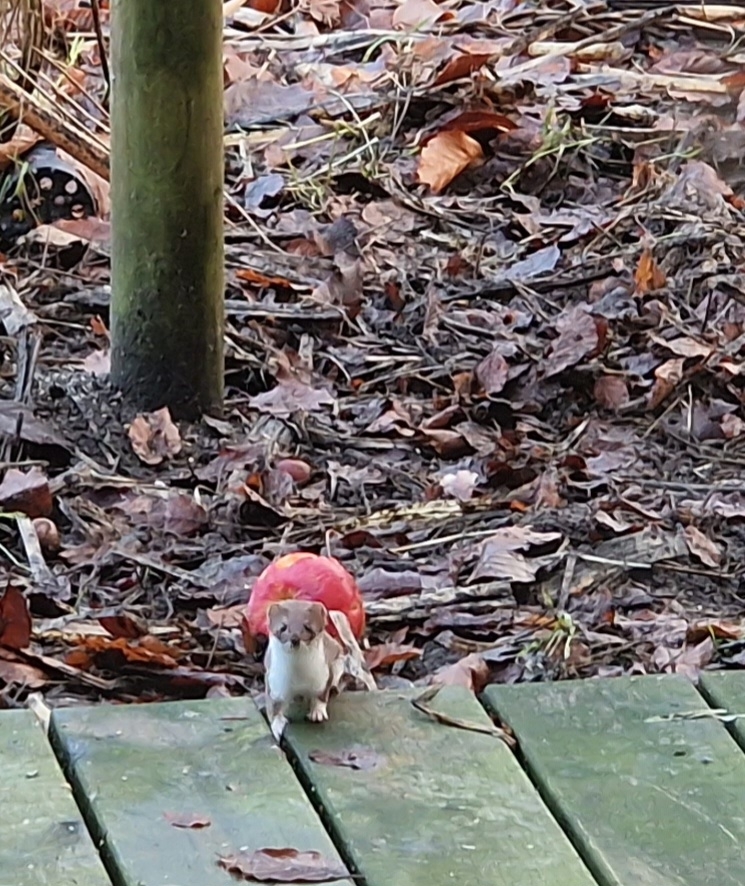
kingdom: Animalia
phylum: Chordata
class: Mammalia
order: Carnivora
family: Mustelidae
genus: Mustela
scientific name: Mustela erminea
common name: Lækat
